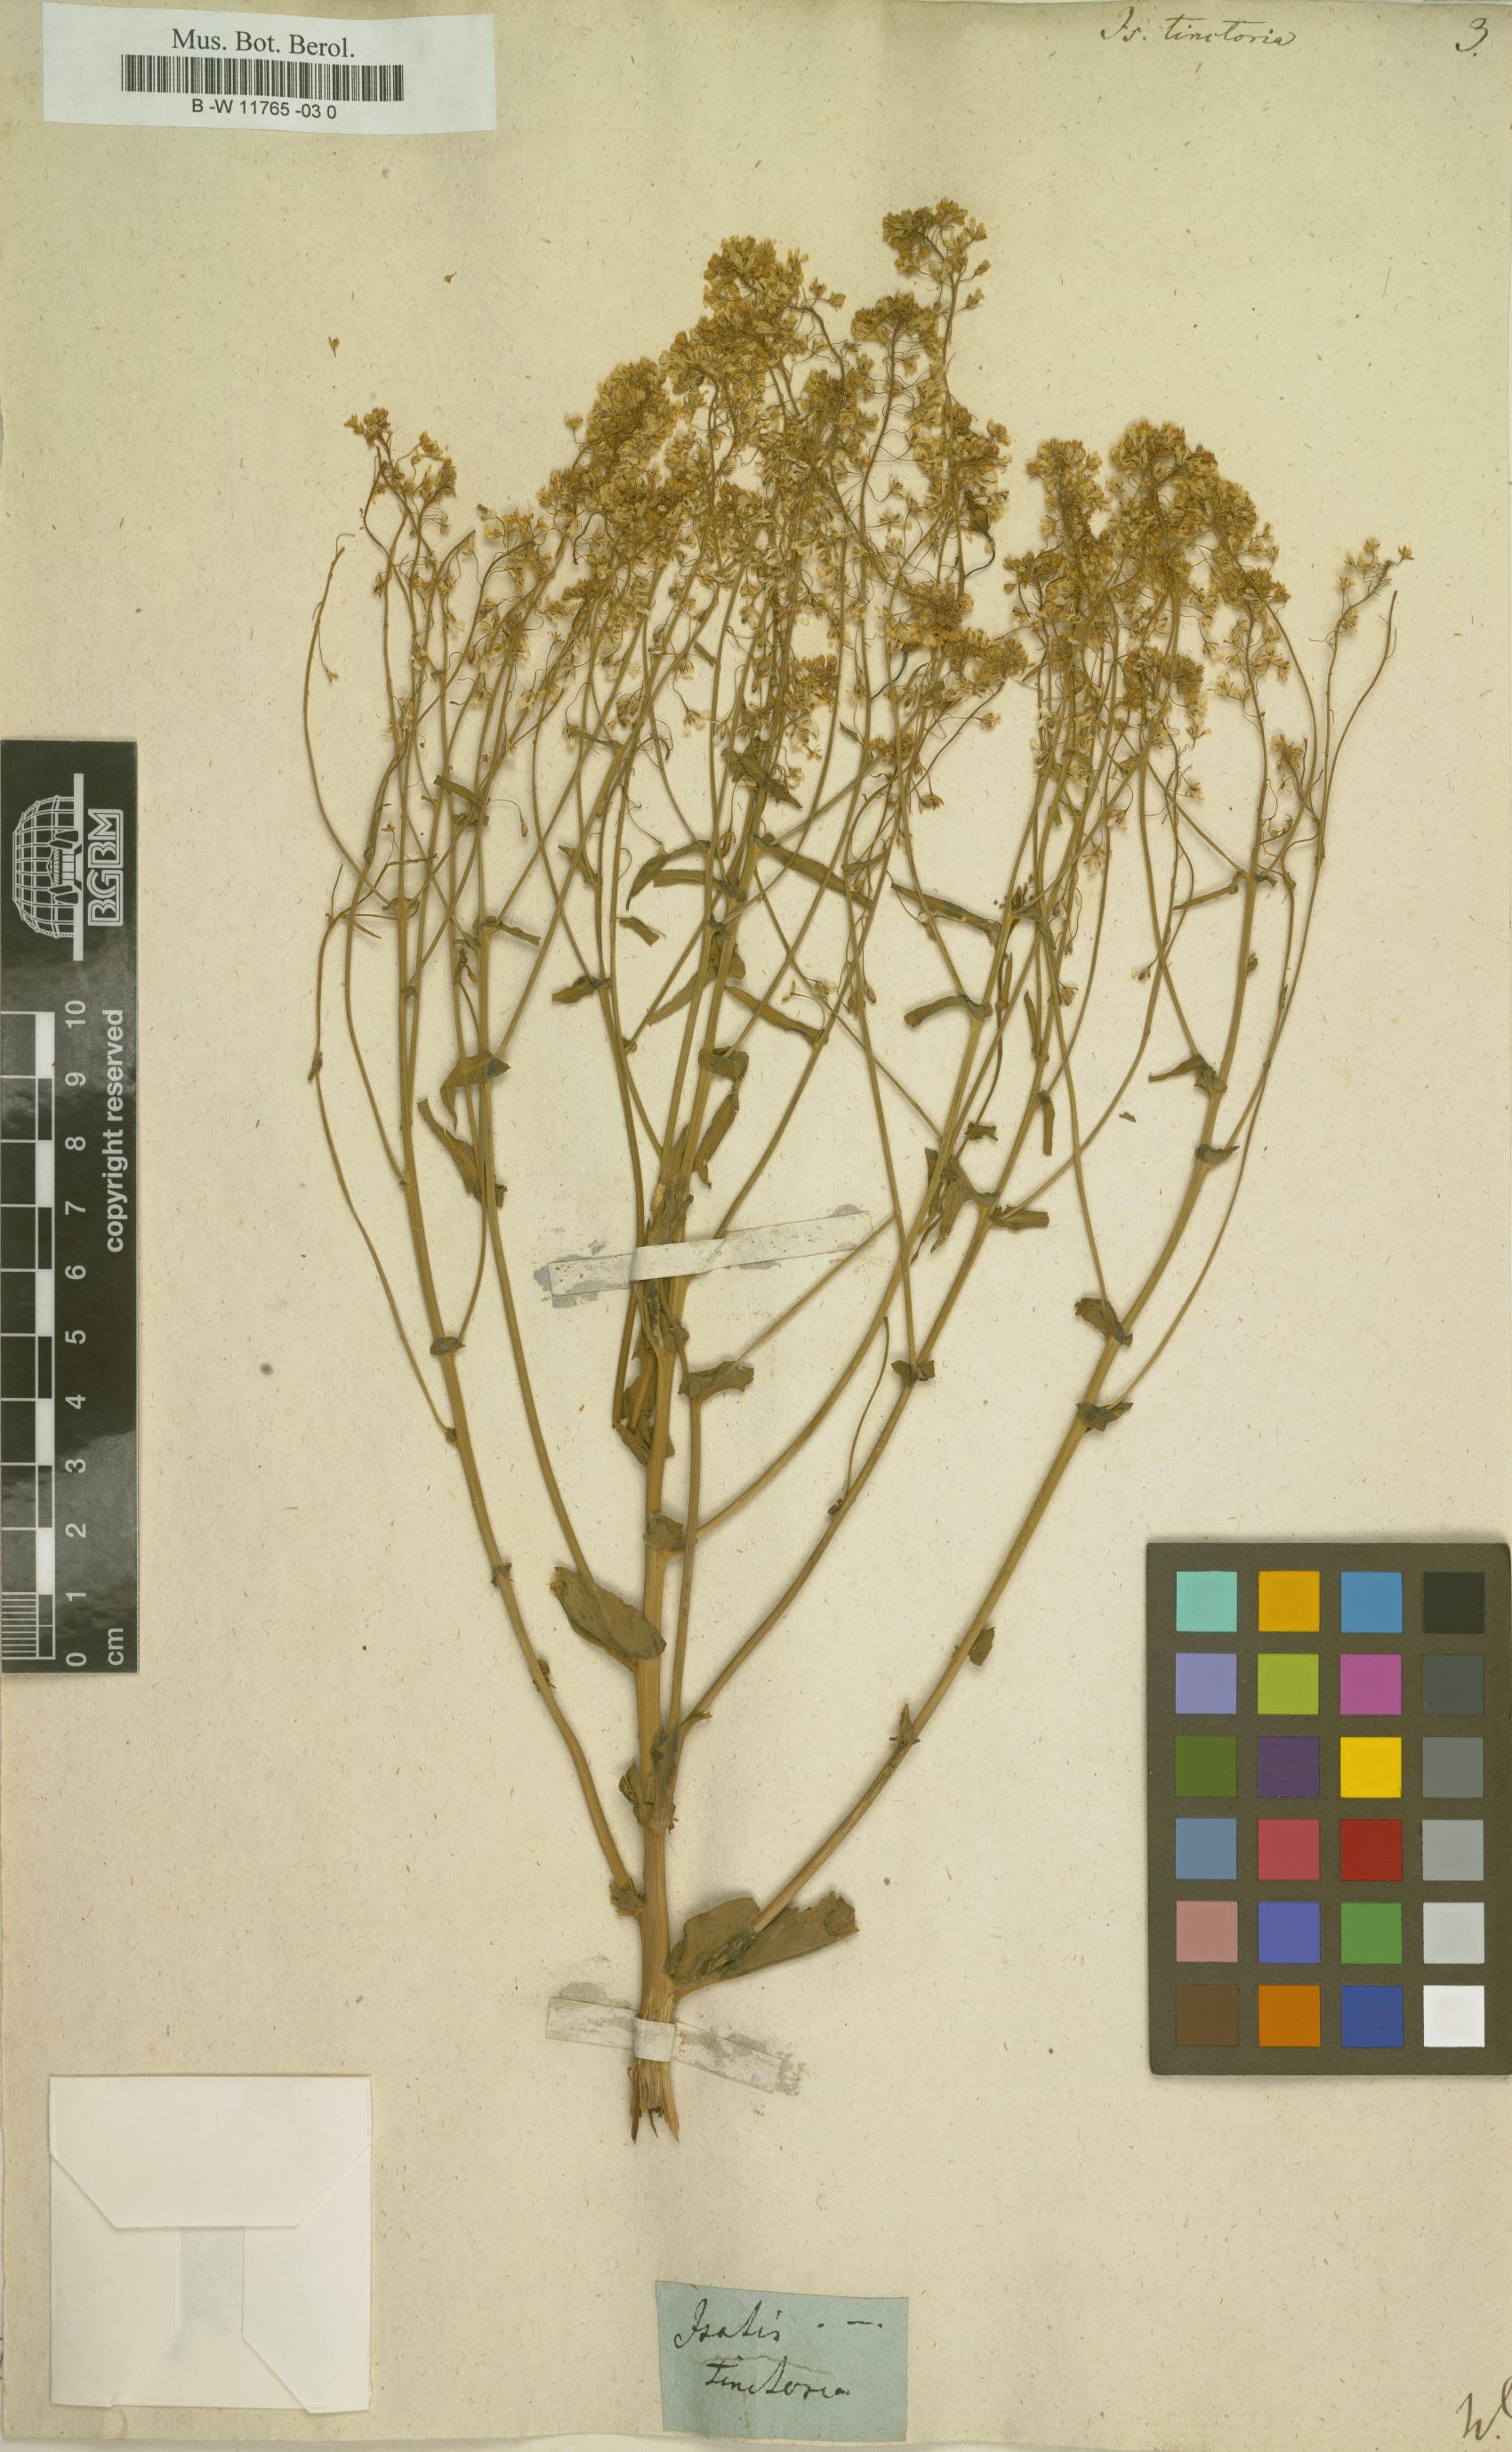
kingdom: Plantae
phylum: Tracheophyta
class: Magnoliopsida
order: Brassicales
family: Brassicaceae
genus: Isatis
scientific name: Isatis tinctoria
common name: Woad
